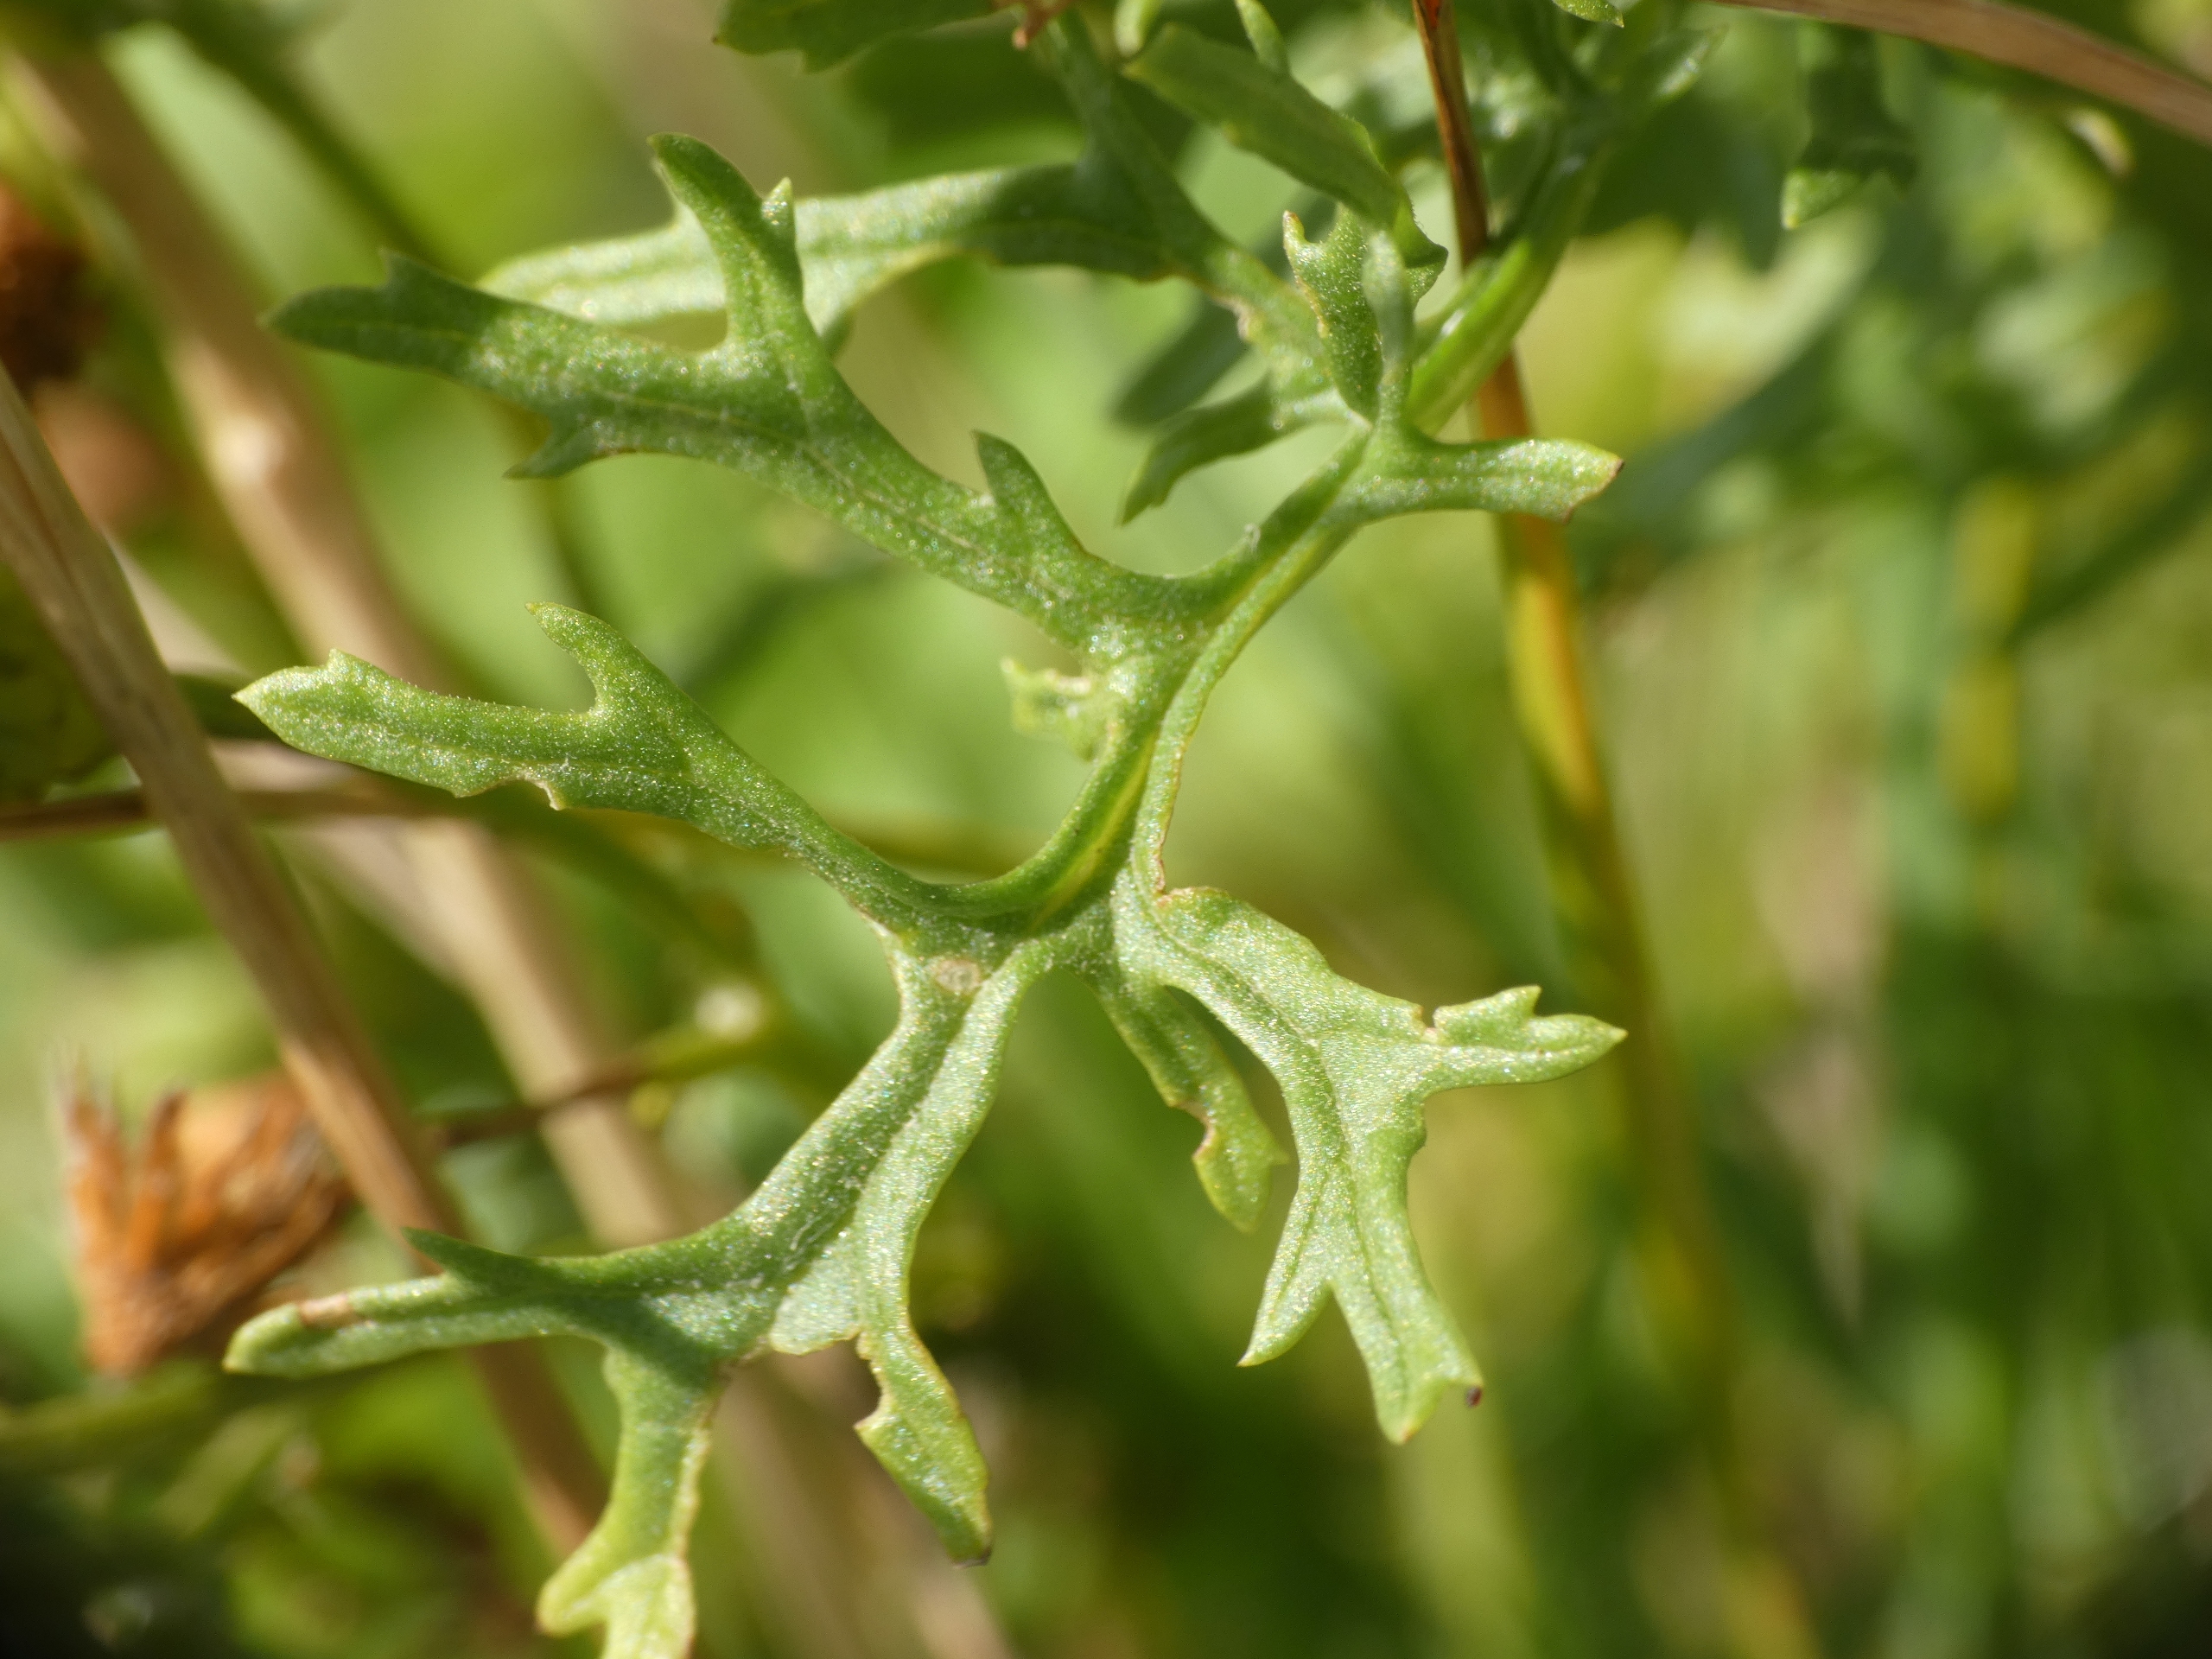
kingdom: Plantae
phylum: Tracheophyta
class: Magnoliopsida
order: Asterales
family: Asteraceae
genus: Jacobaea
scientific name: Jacobaea vulgaris
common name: Eng-brandbæger
